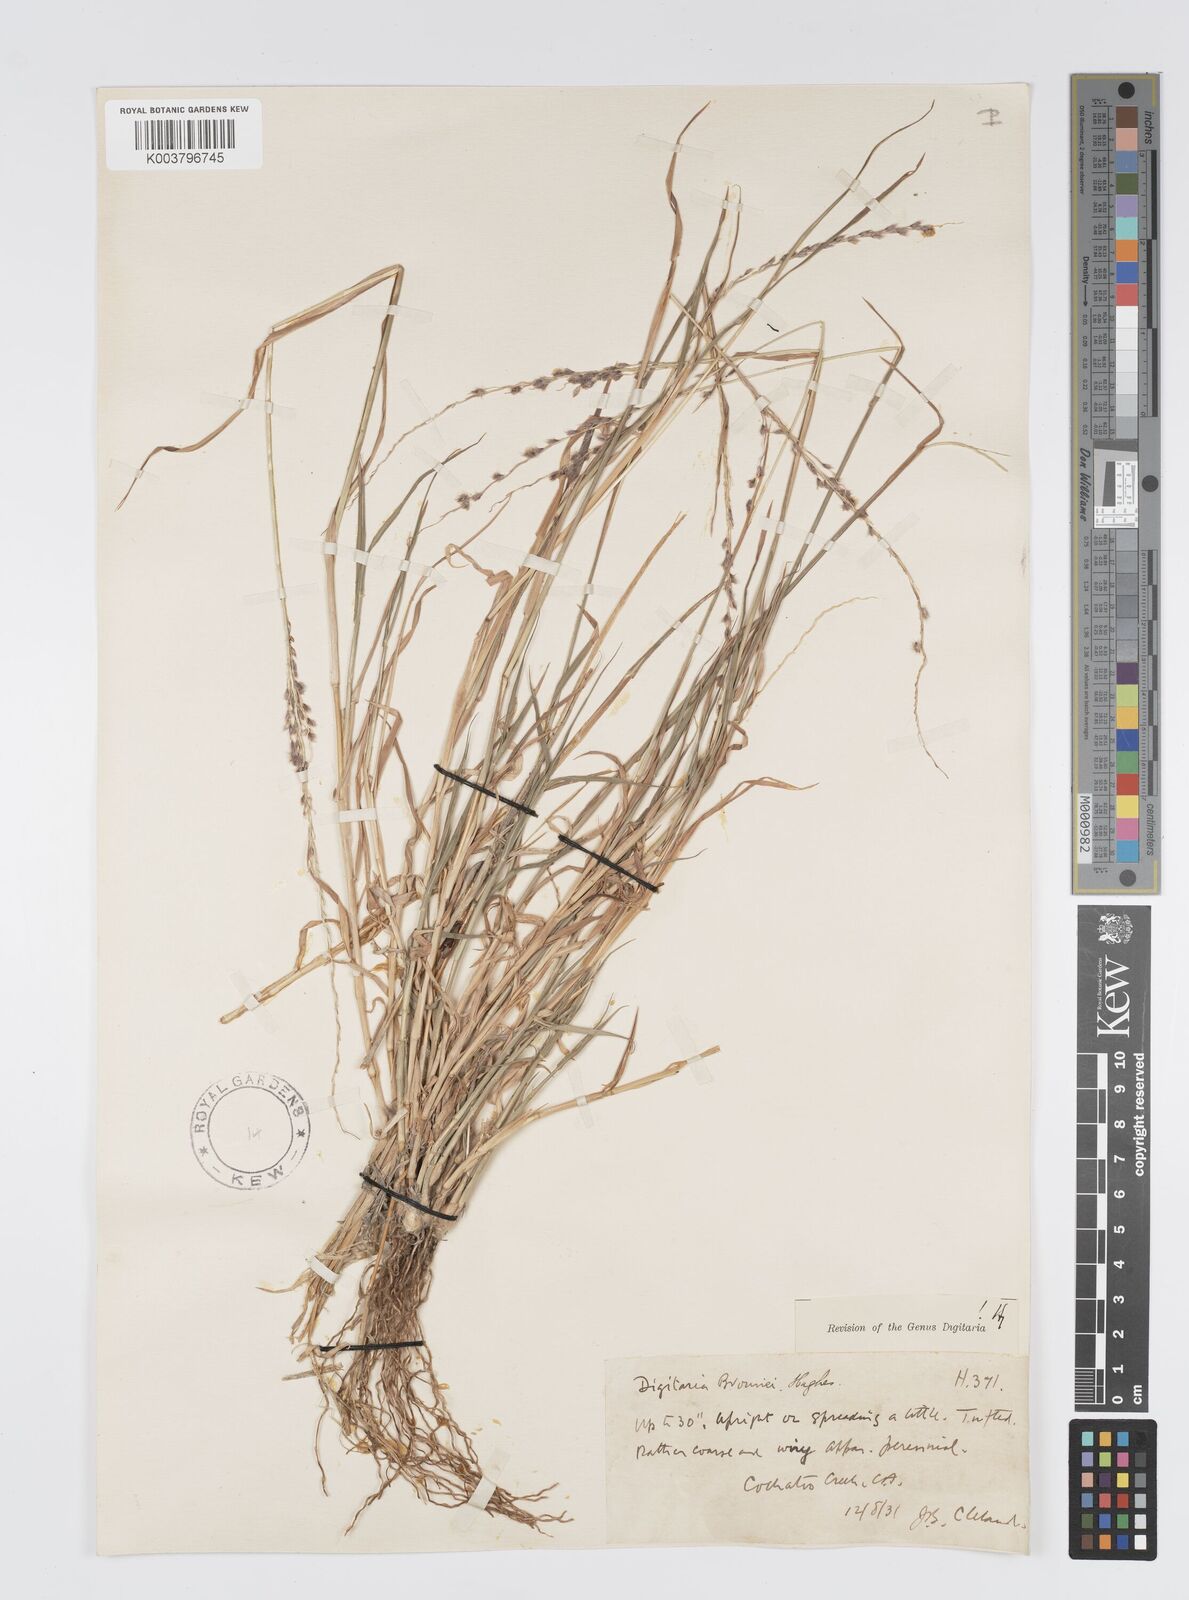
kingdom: Plantae
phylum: Tracheophyta
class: Liliopsida
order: Poales
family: Poaceae
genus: Digitaria
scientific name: Digitaria brownii
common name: Cotton grass
